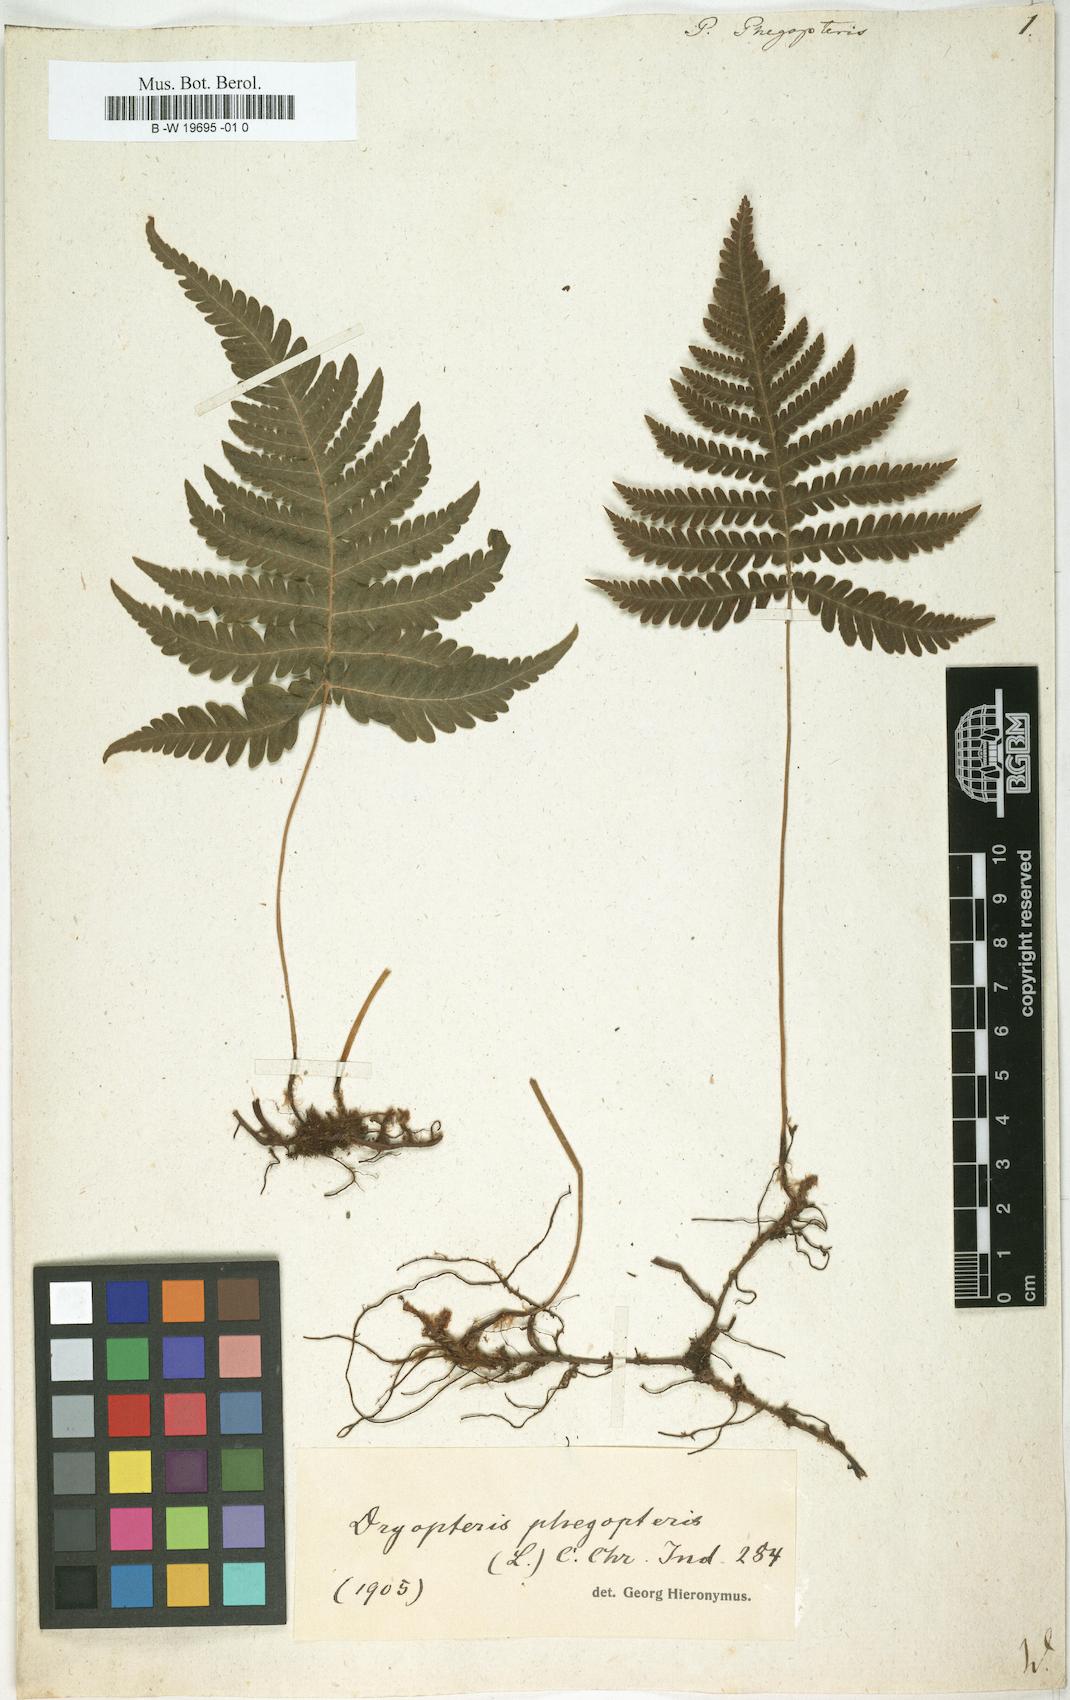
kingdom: Plantae
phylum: Tracheophyta
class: Polypodiopsida
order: Polypodiales
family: Thelypteridaceae
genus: Phegopteris
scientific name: Phegopteris connectilis
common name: Beech fern
